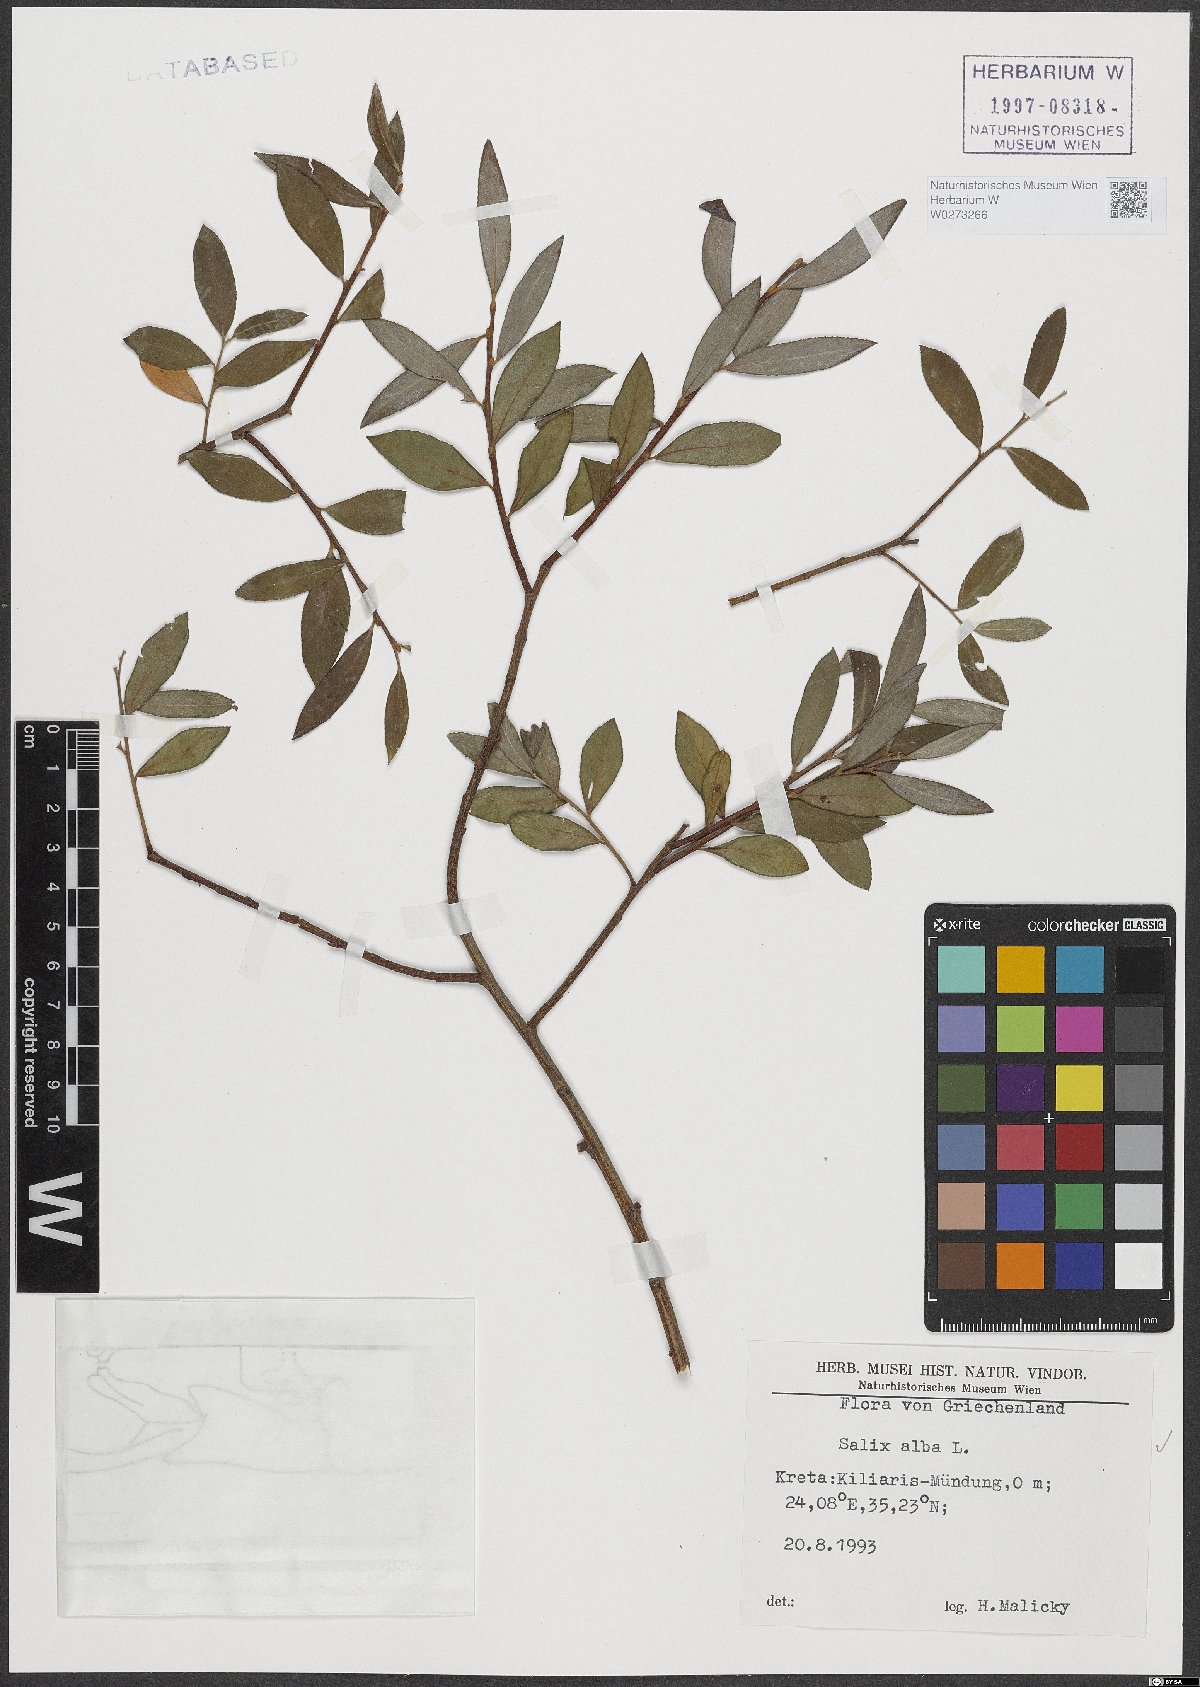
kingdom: Plantae
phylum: Tracheophyta
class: Magnoliopsida
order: Malpighiales
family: Salicaceae
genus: Salix
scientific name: Salix alba
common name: White willow
